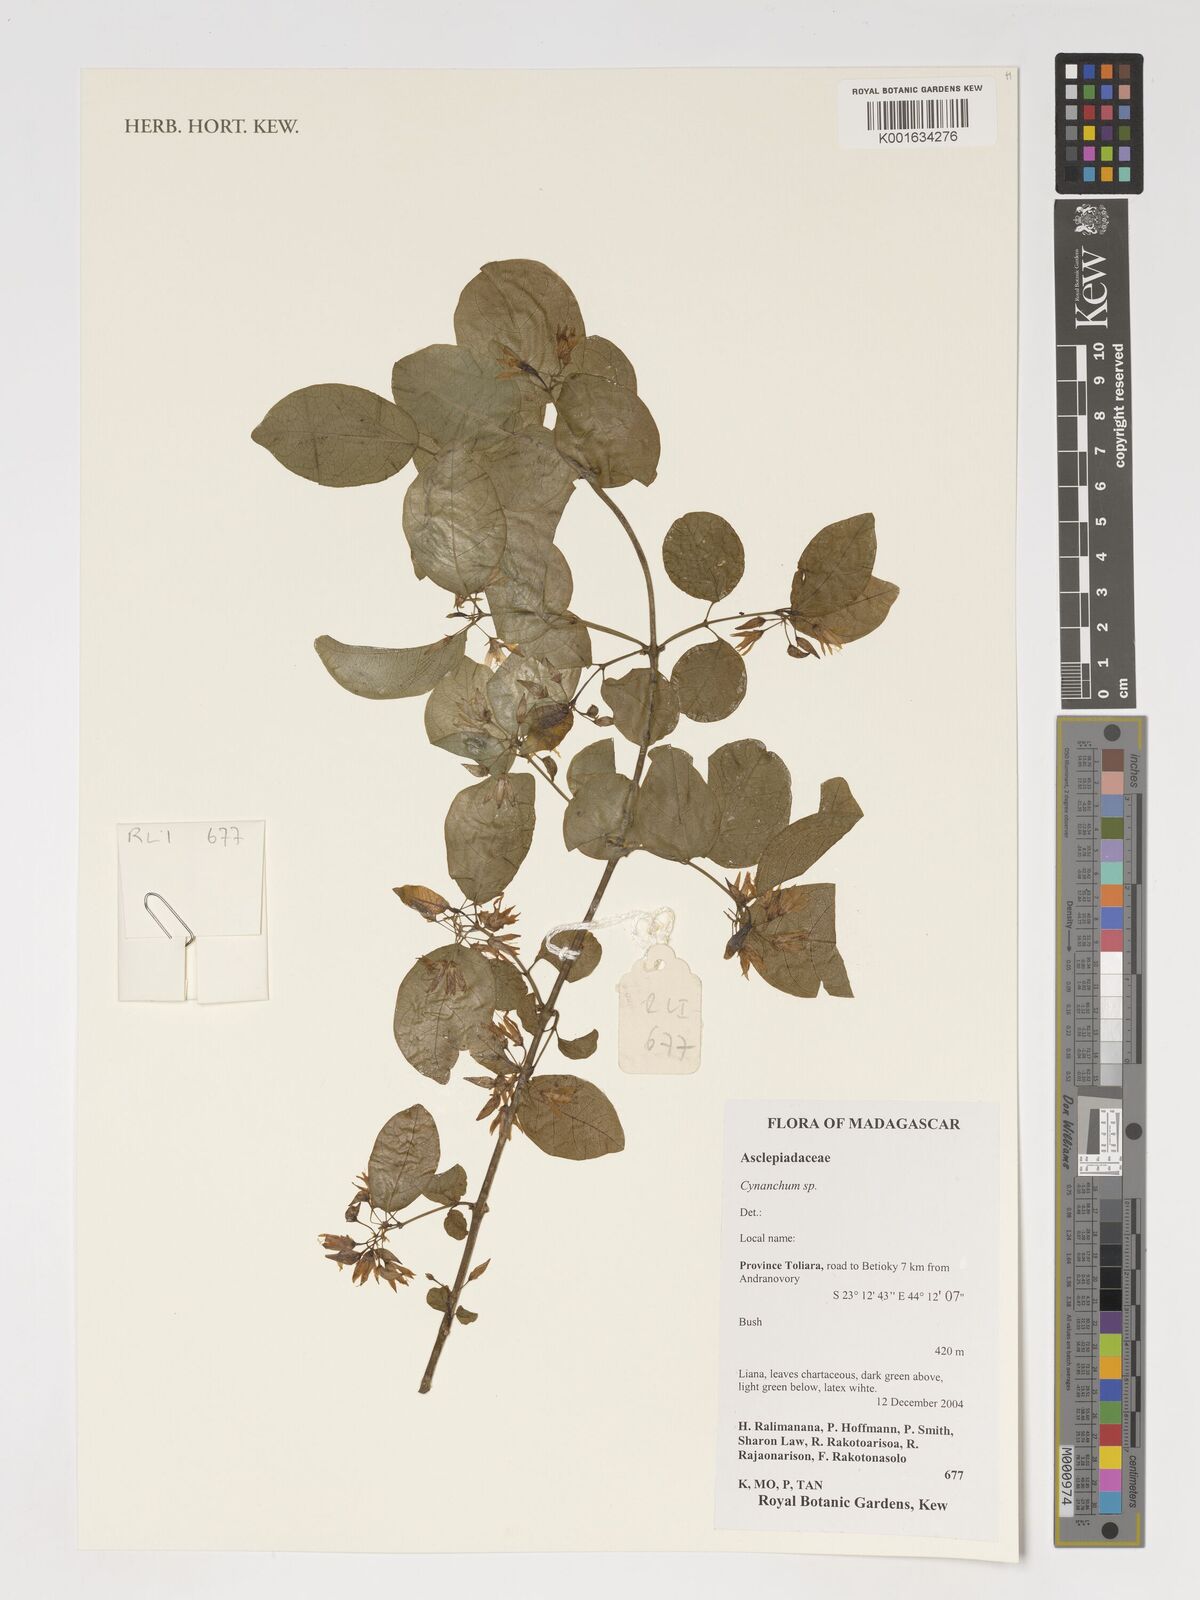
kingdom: Plantae
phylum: Tracheophyta
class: Magnoliopsida
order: Gentianales
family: Apocynaceae
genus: Cynanchum
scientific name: Cynanchum
